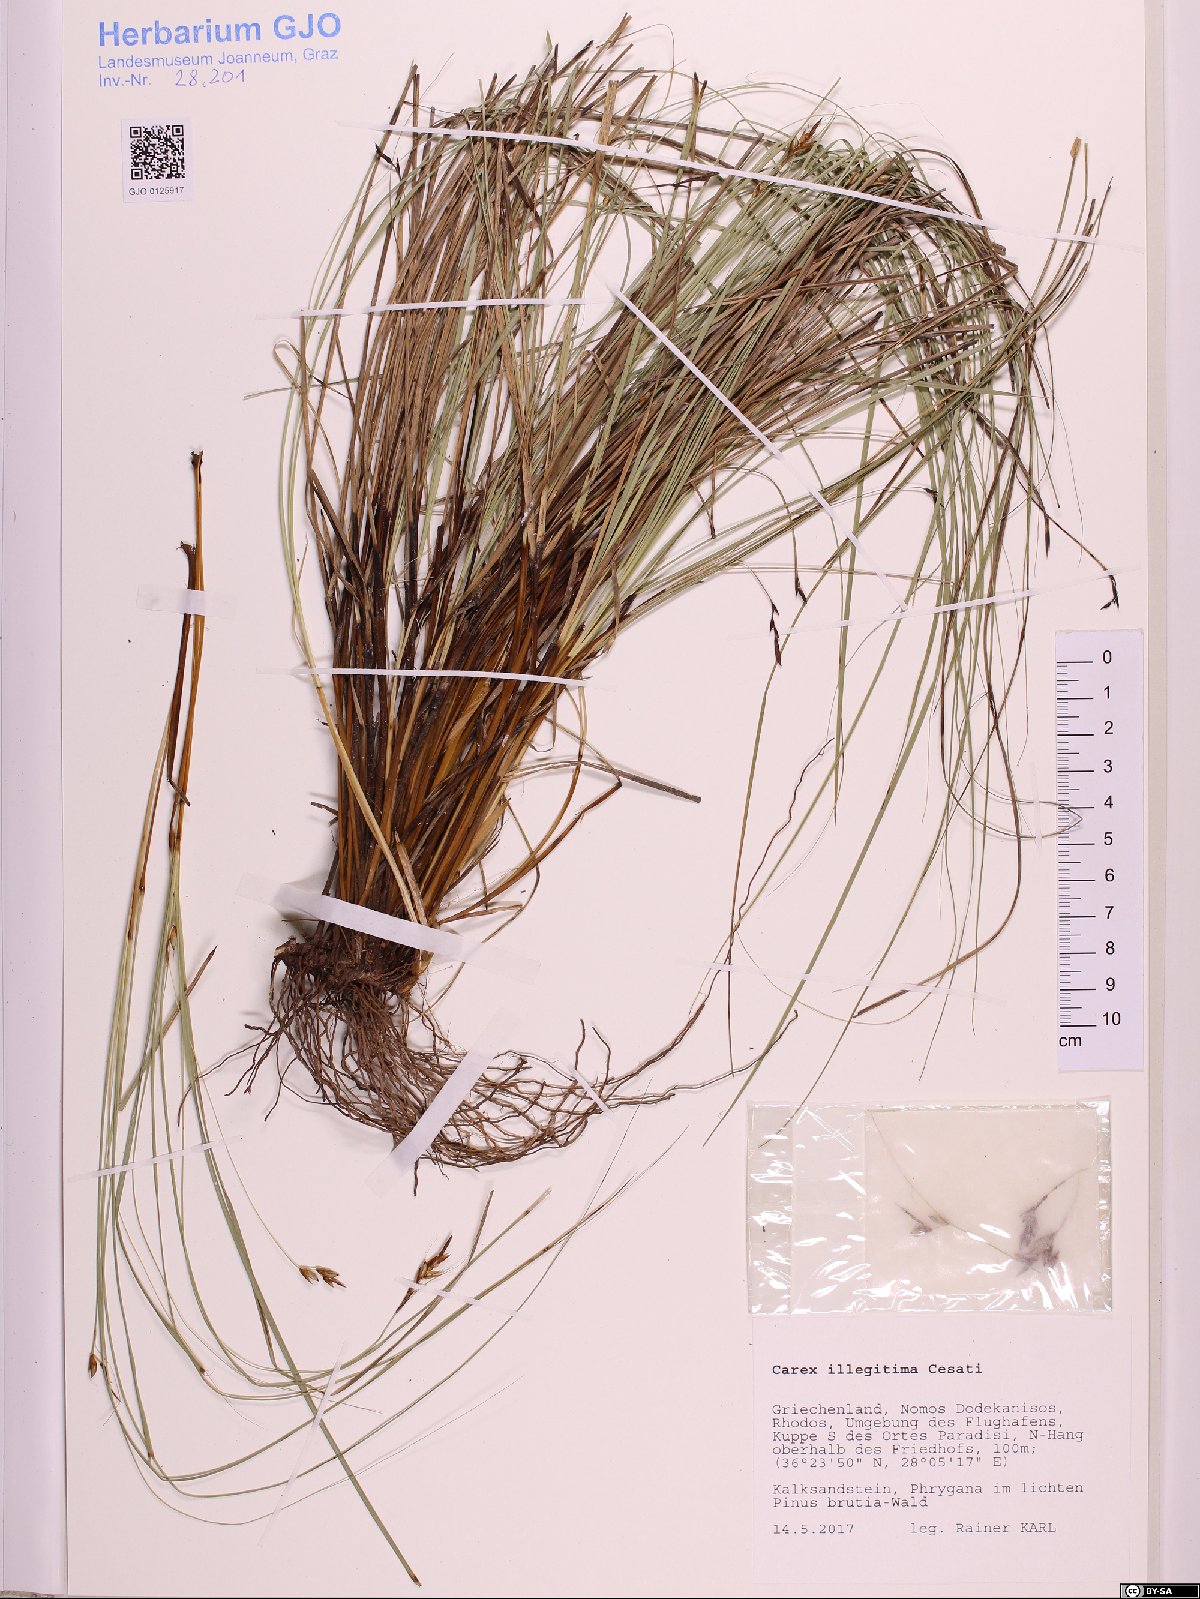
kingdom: Plantae
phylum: Tracheophyta
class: Liliopsida
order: Poales
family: Cyperaceae
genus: Carex
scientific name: Carex illegitima
